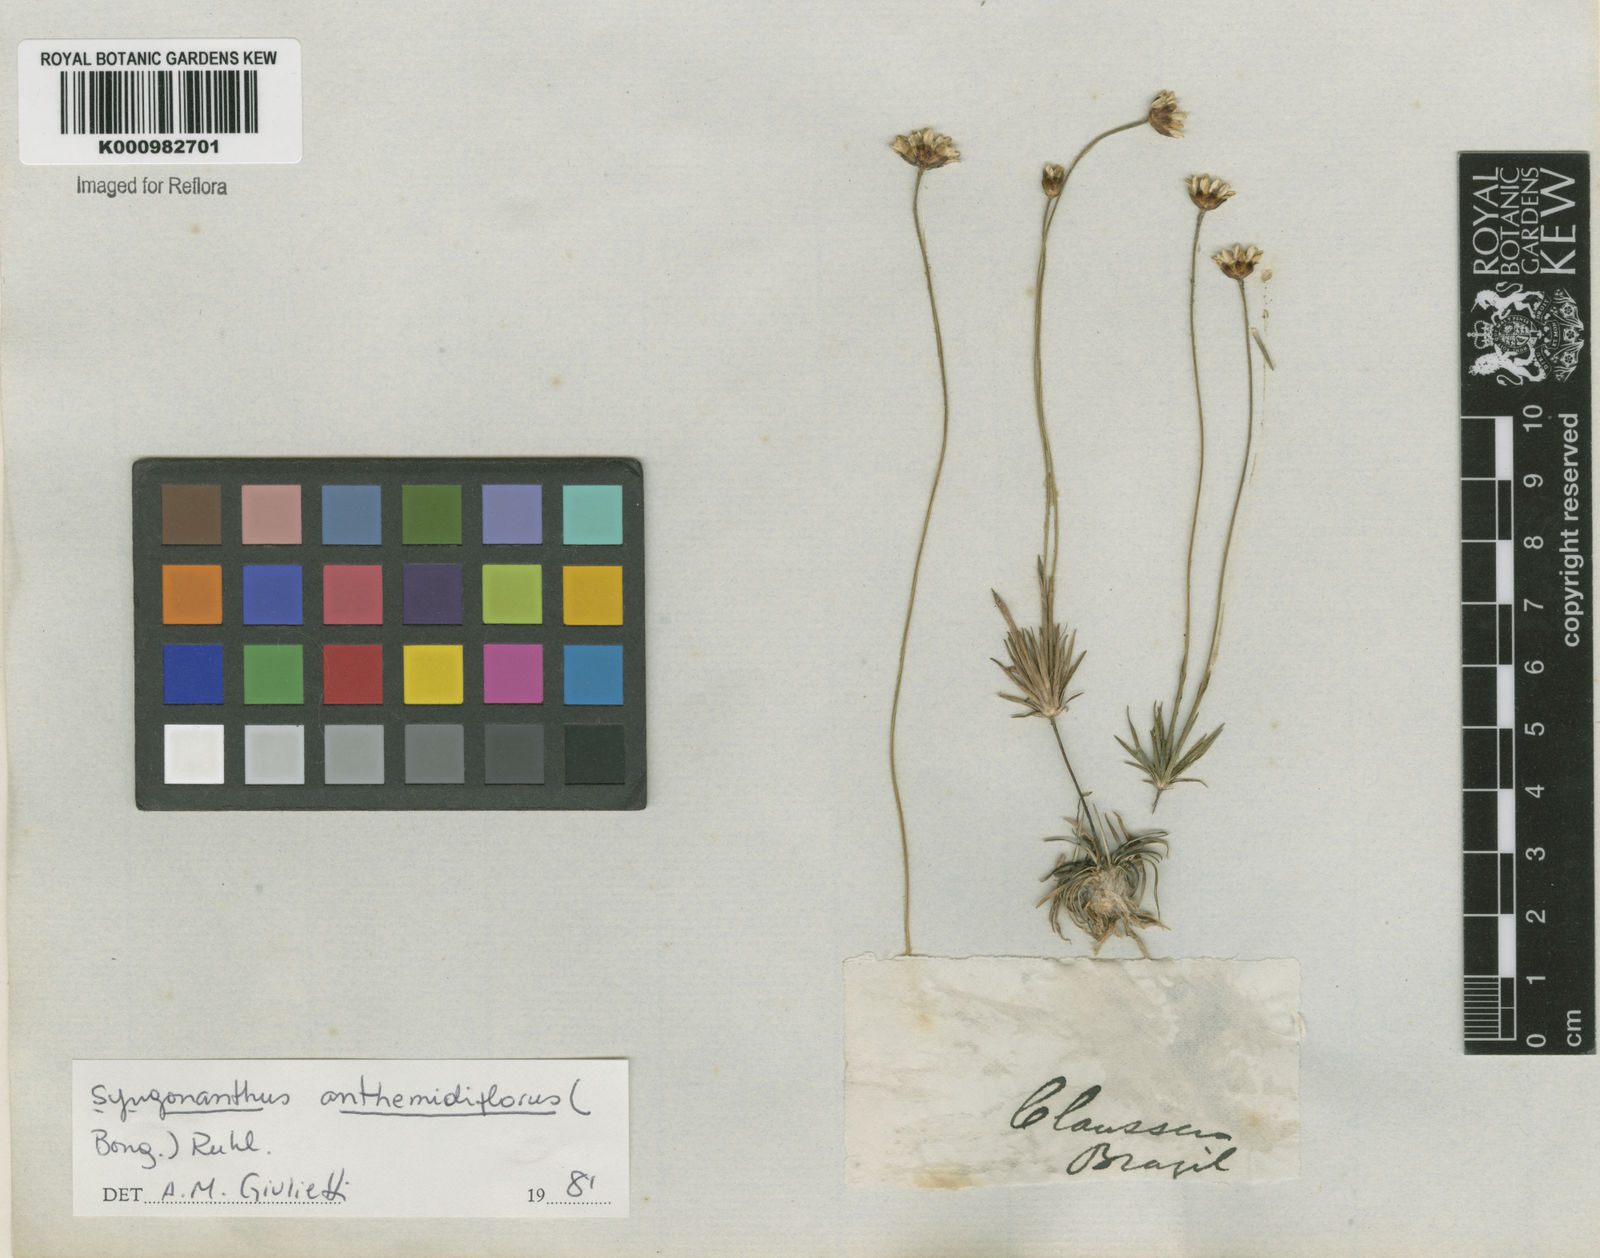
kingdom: Plantae
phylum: Tracheophyta
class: Liliopsida
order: Poales
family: Eriocaulaceae
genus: Syngonanthus
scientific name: Syngonanthus laricifolius
